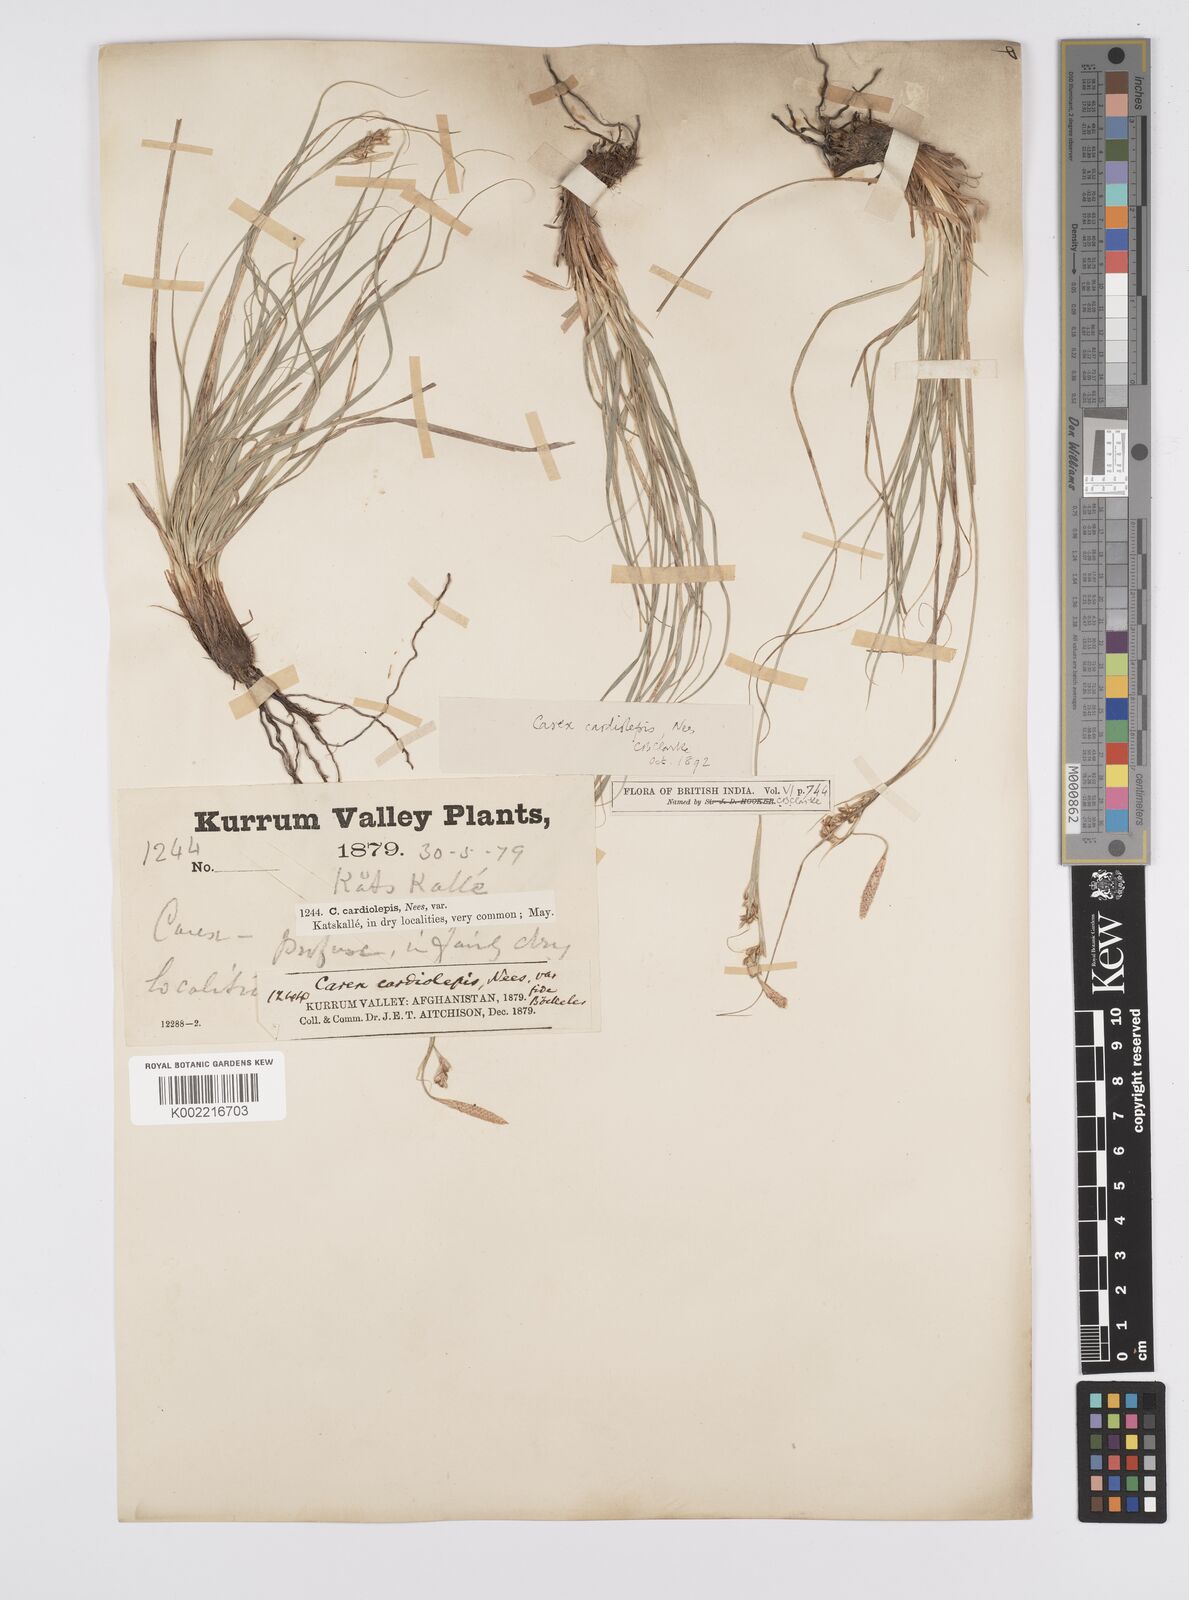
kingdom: Plantae
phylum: Tracheophyta
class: Liliopsida
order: Poales
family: Cyperaceae
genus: Carex
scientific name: Carex cardiolepis
